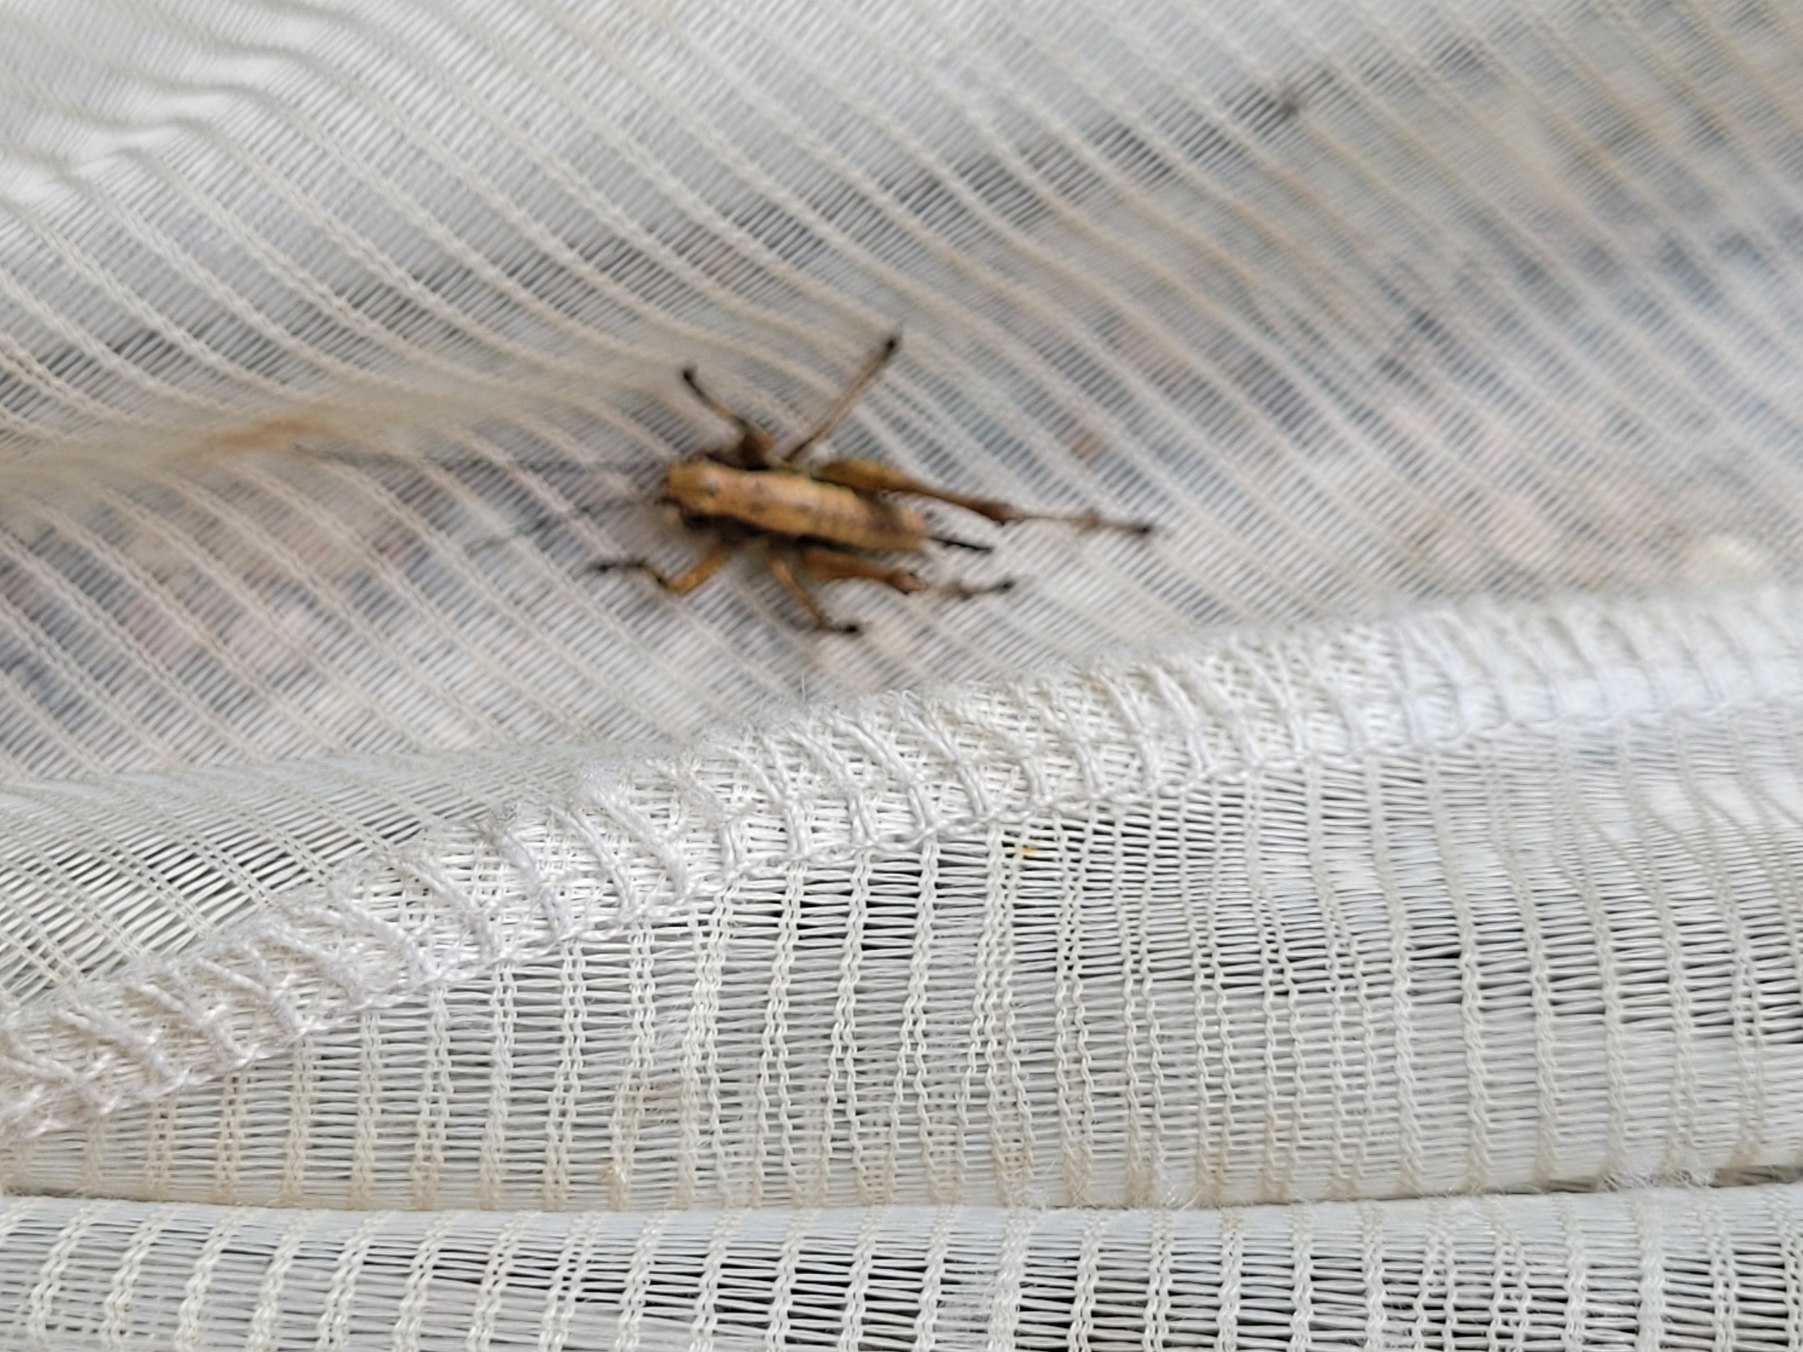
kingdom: Animalia
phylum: Arthropoda
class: Insecta
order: Orthoptera
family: Tettigoniidae
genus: Pholidoptera
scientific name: Pholidoptera griseoaptera
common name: Buskgræshoppe
